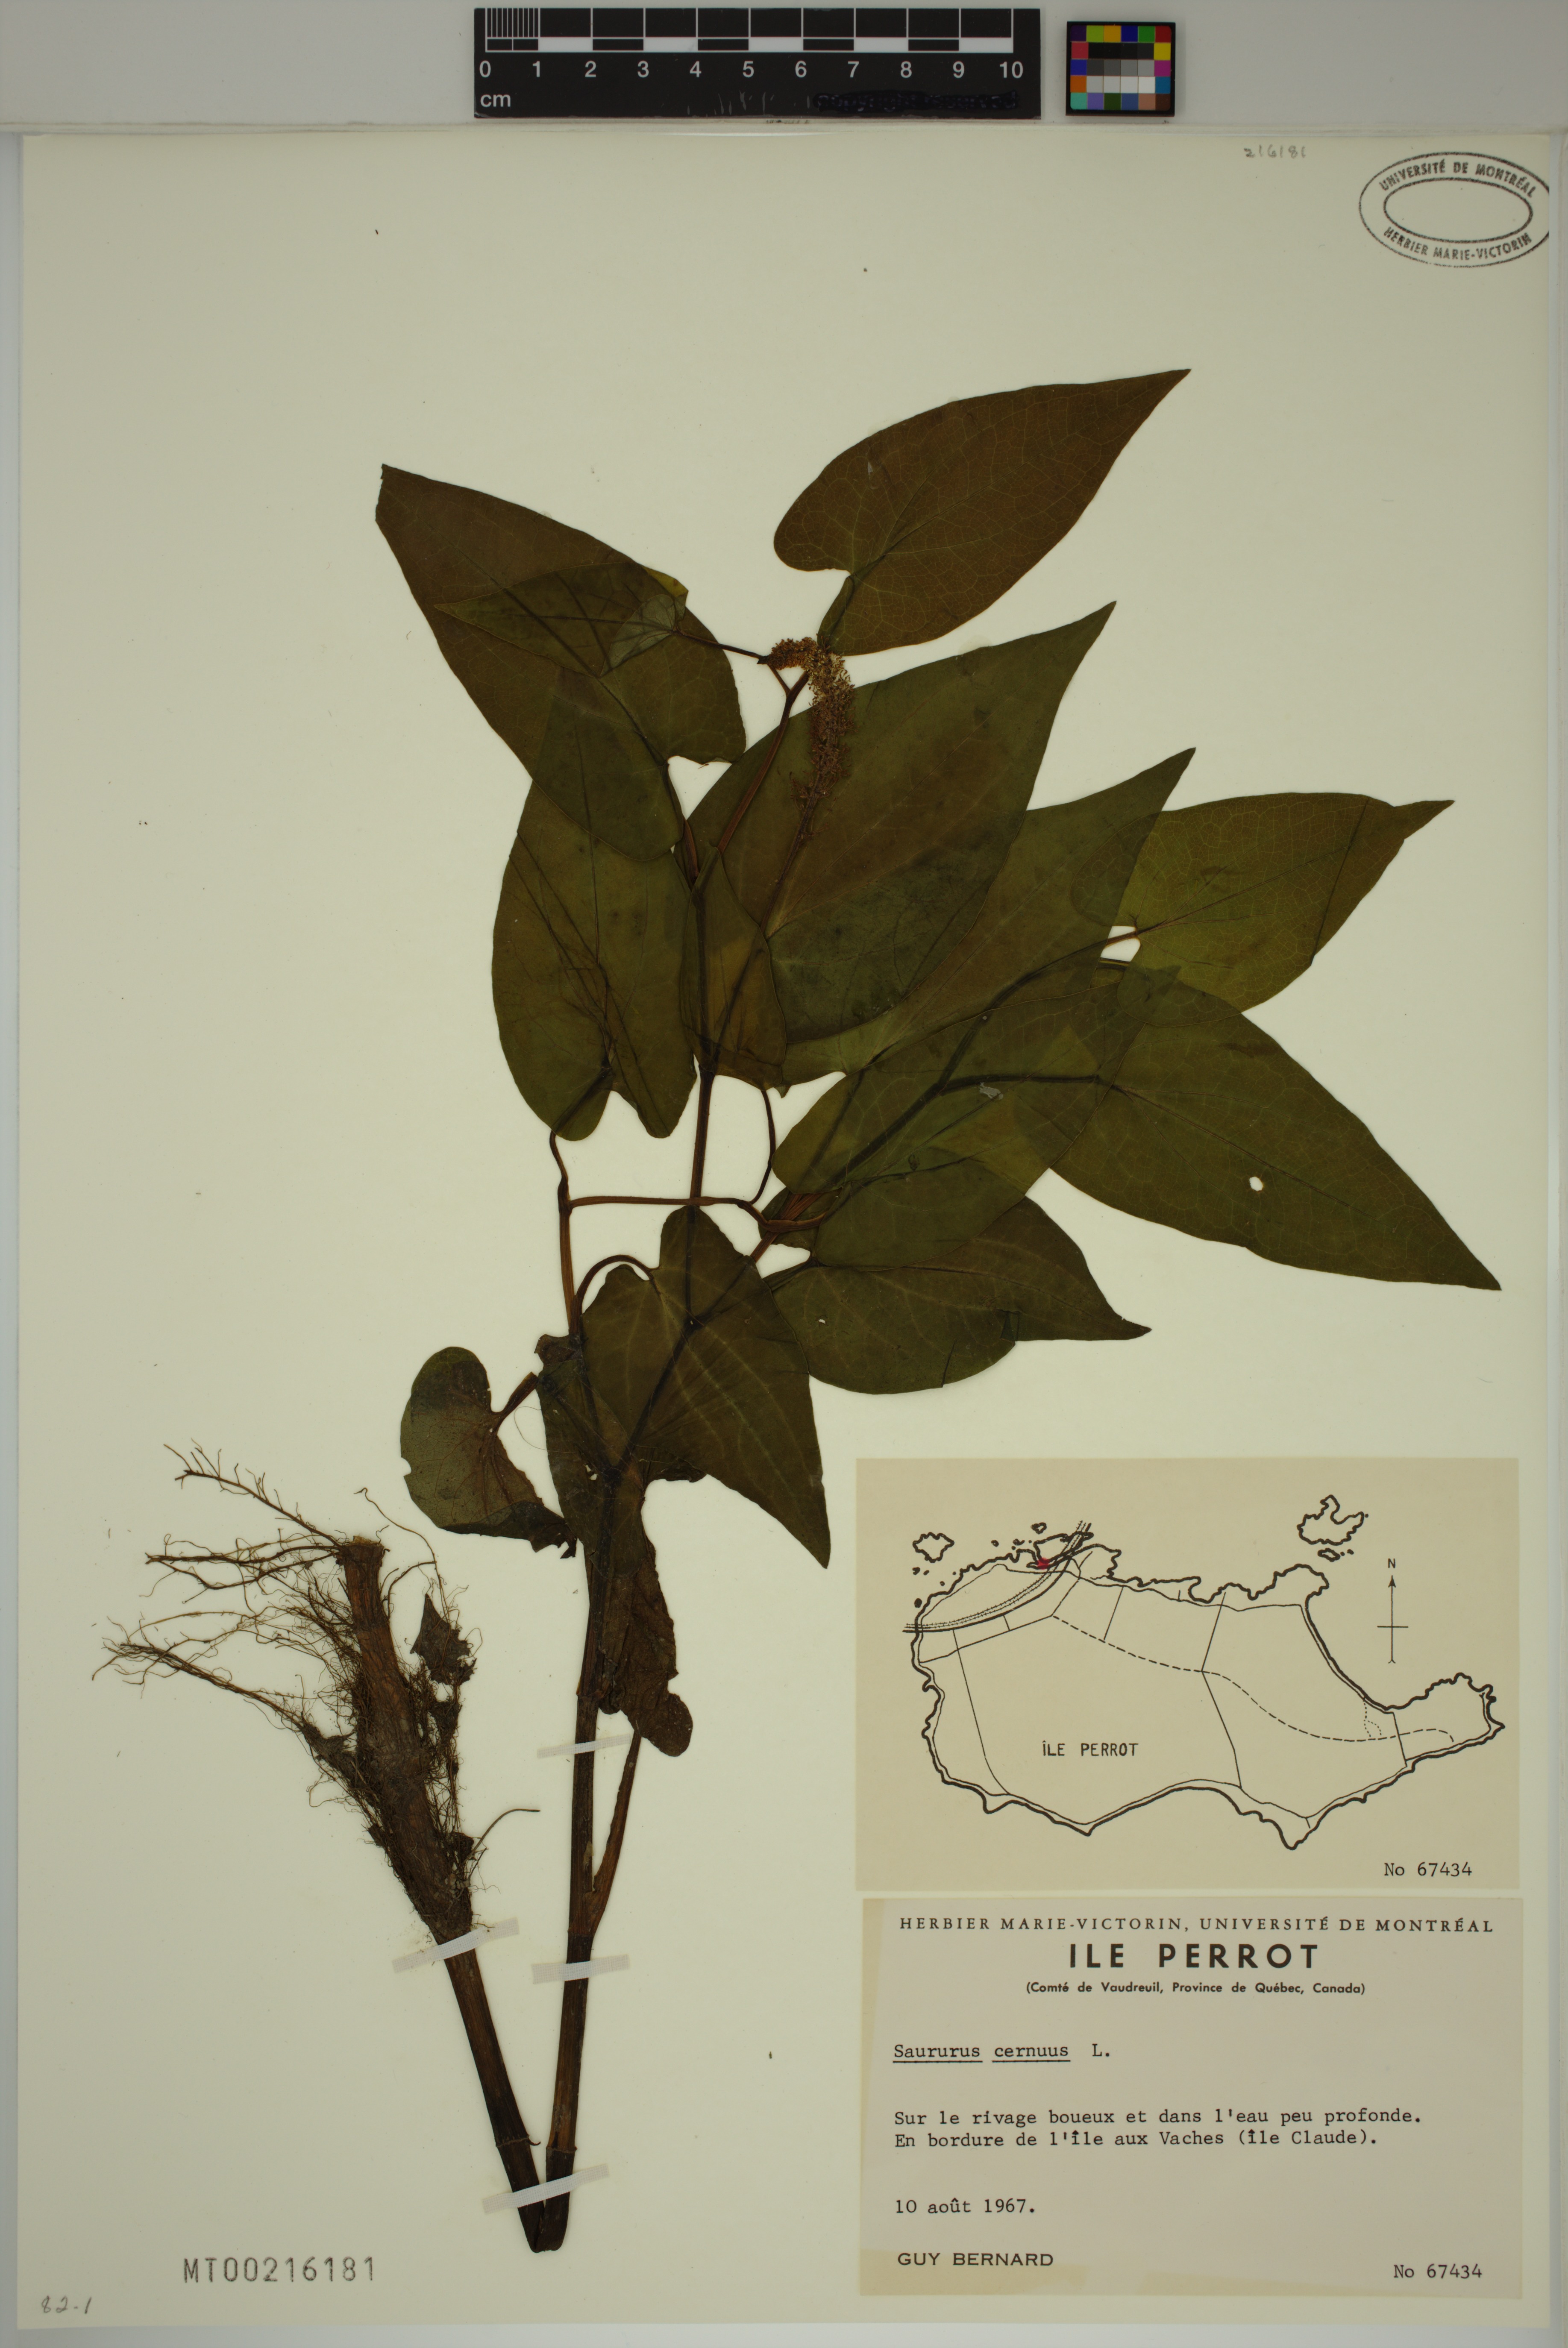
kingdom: Plantae
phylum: Tracheophyta
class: Magnoliopsida
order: Piperales
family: Saururaceae
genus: Saururus
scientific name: Saururus cernuus
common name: Lizard's-tail
